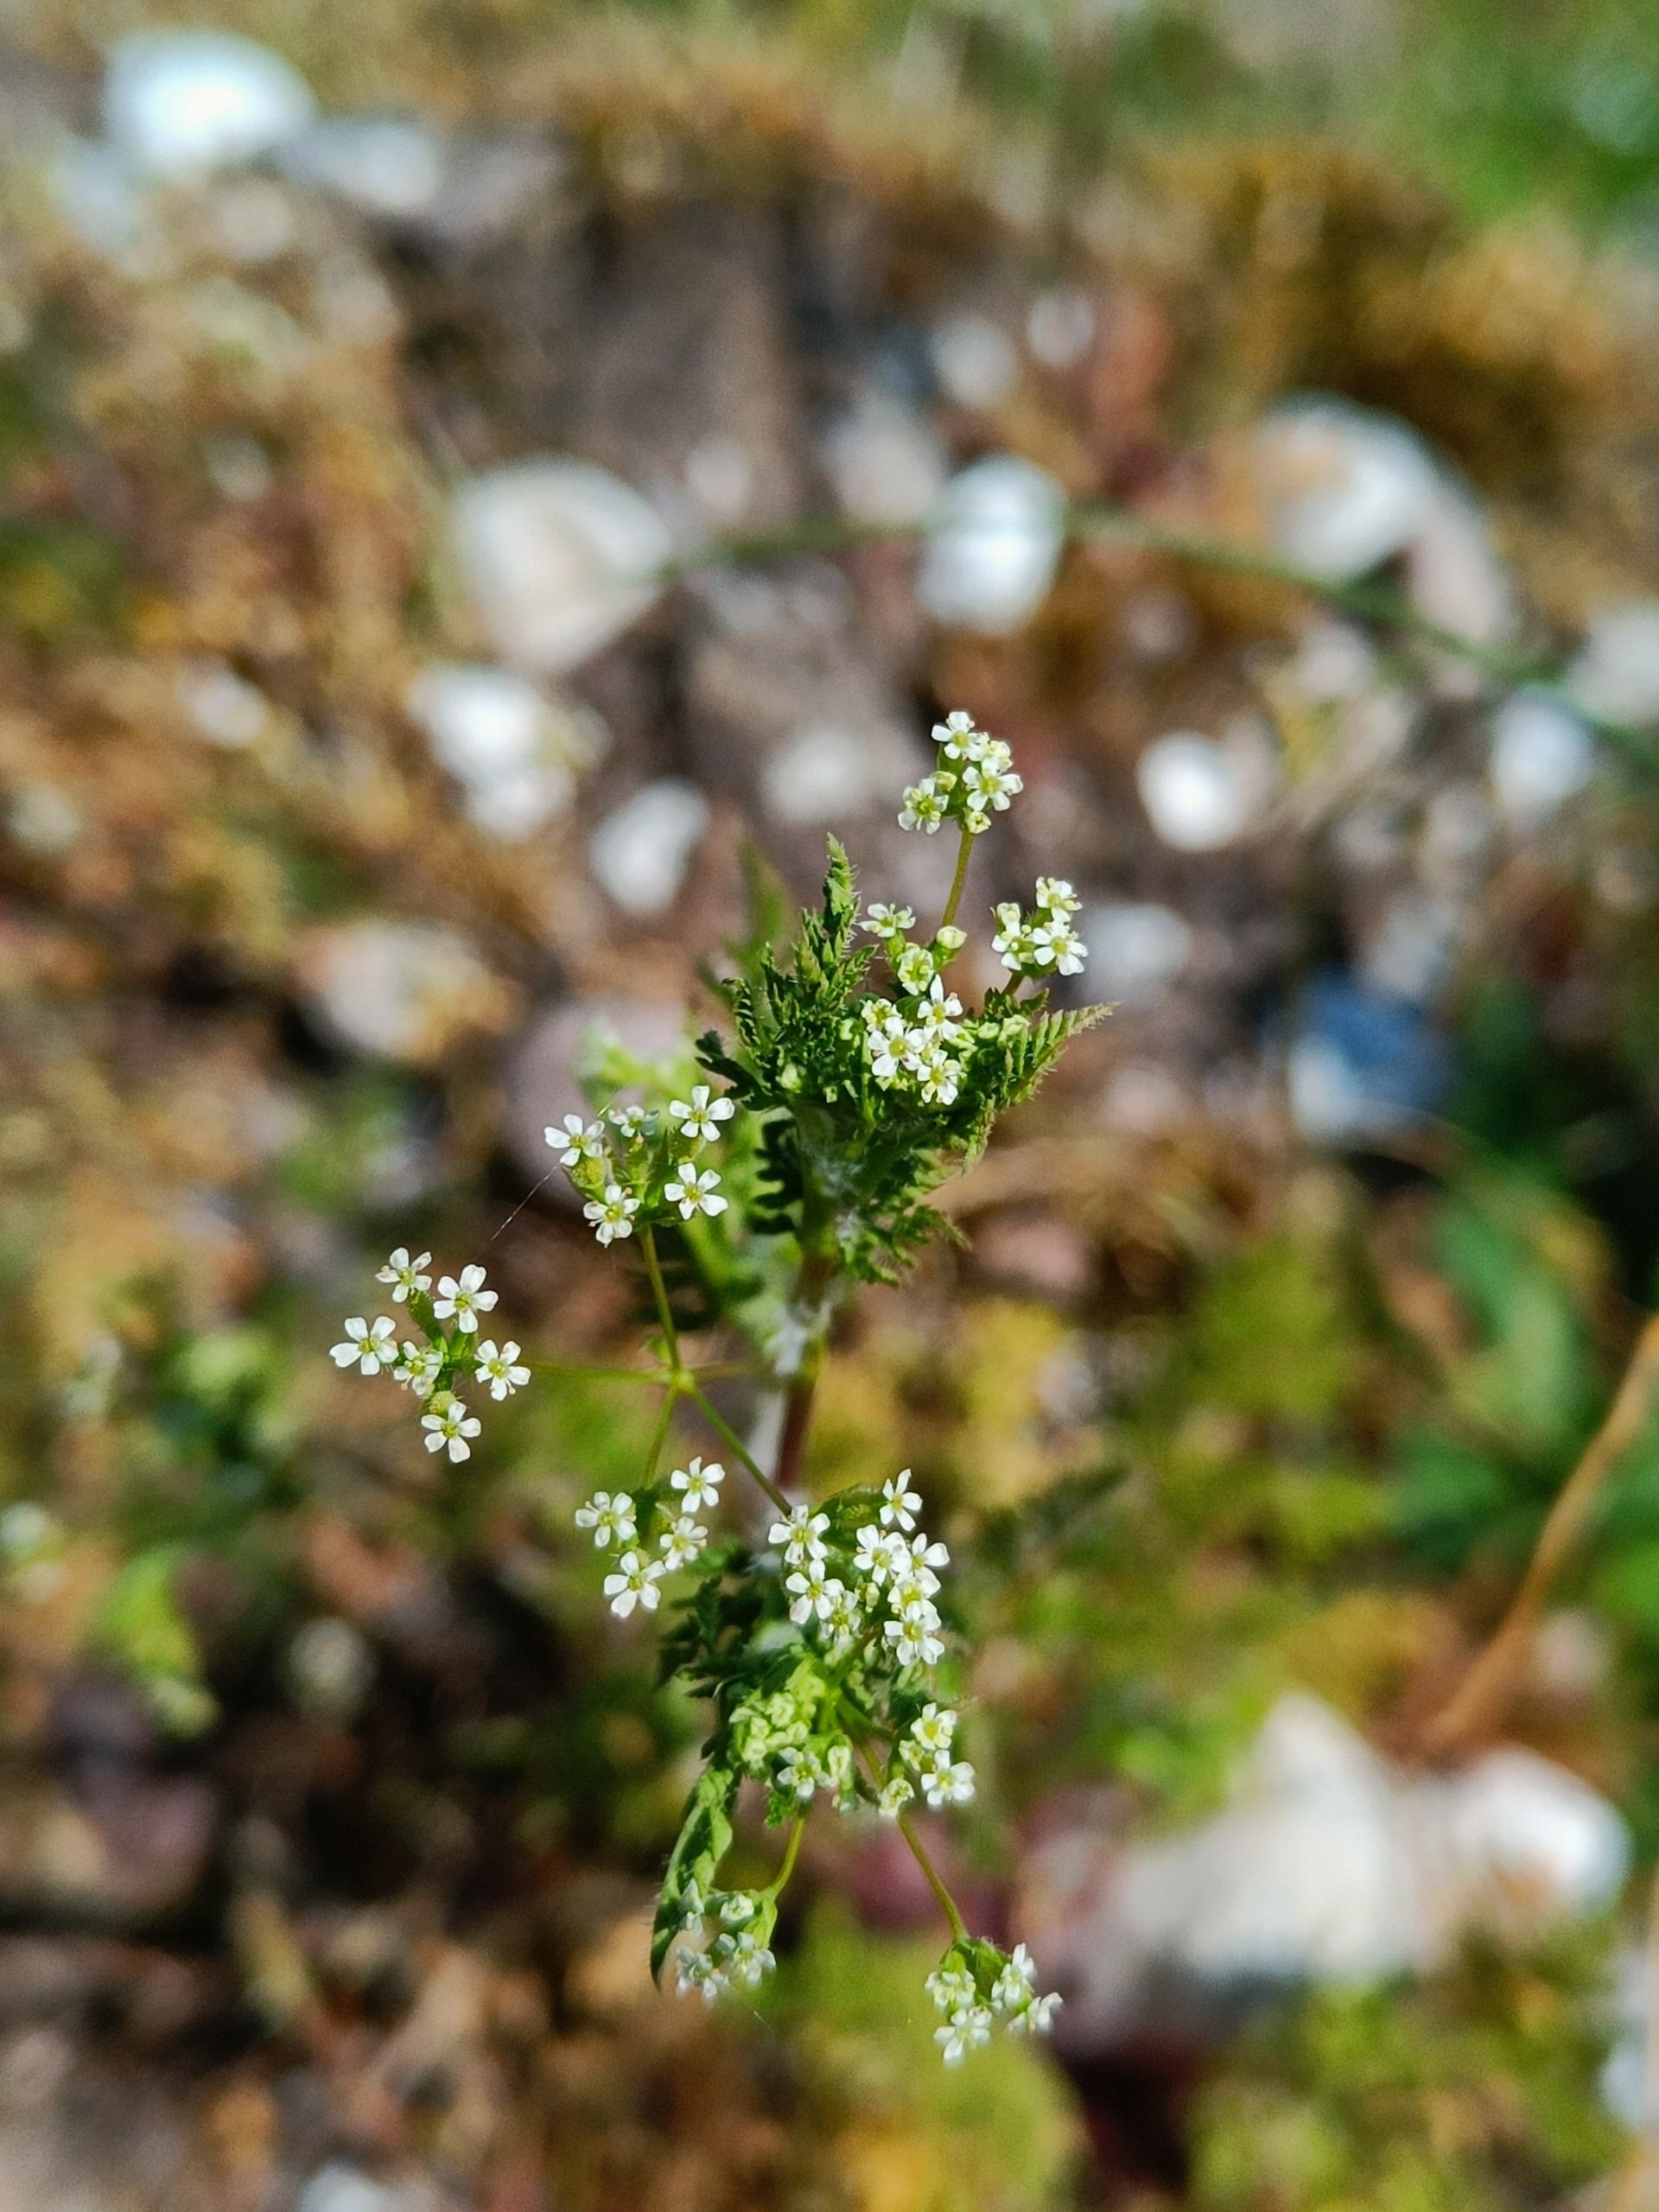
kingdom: Plantae
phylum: Tracheophyta
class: Magnoliopsida
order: Apiales
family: Apiaceae
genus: Anthriscus
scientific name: Anthriscus caucalis
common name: Gærde-kørvel
